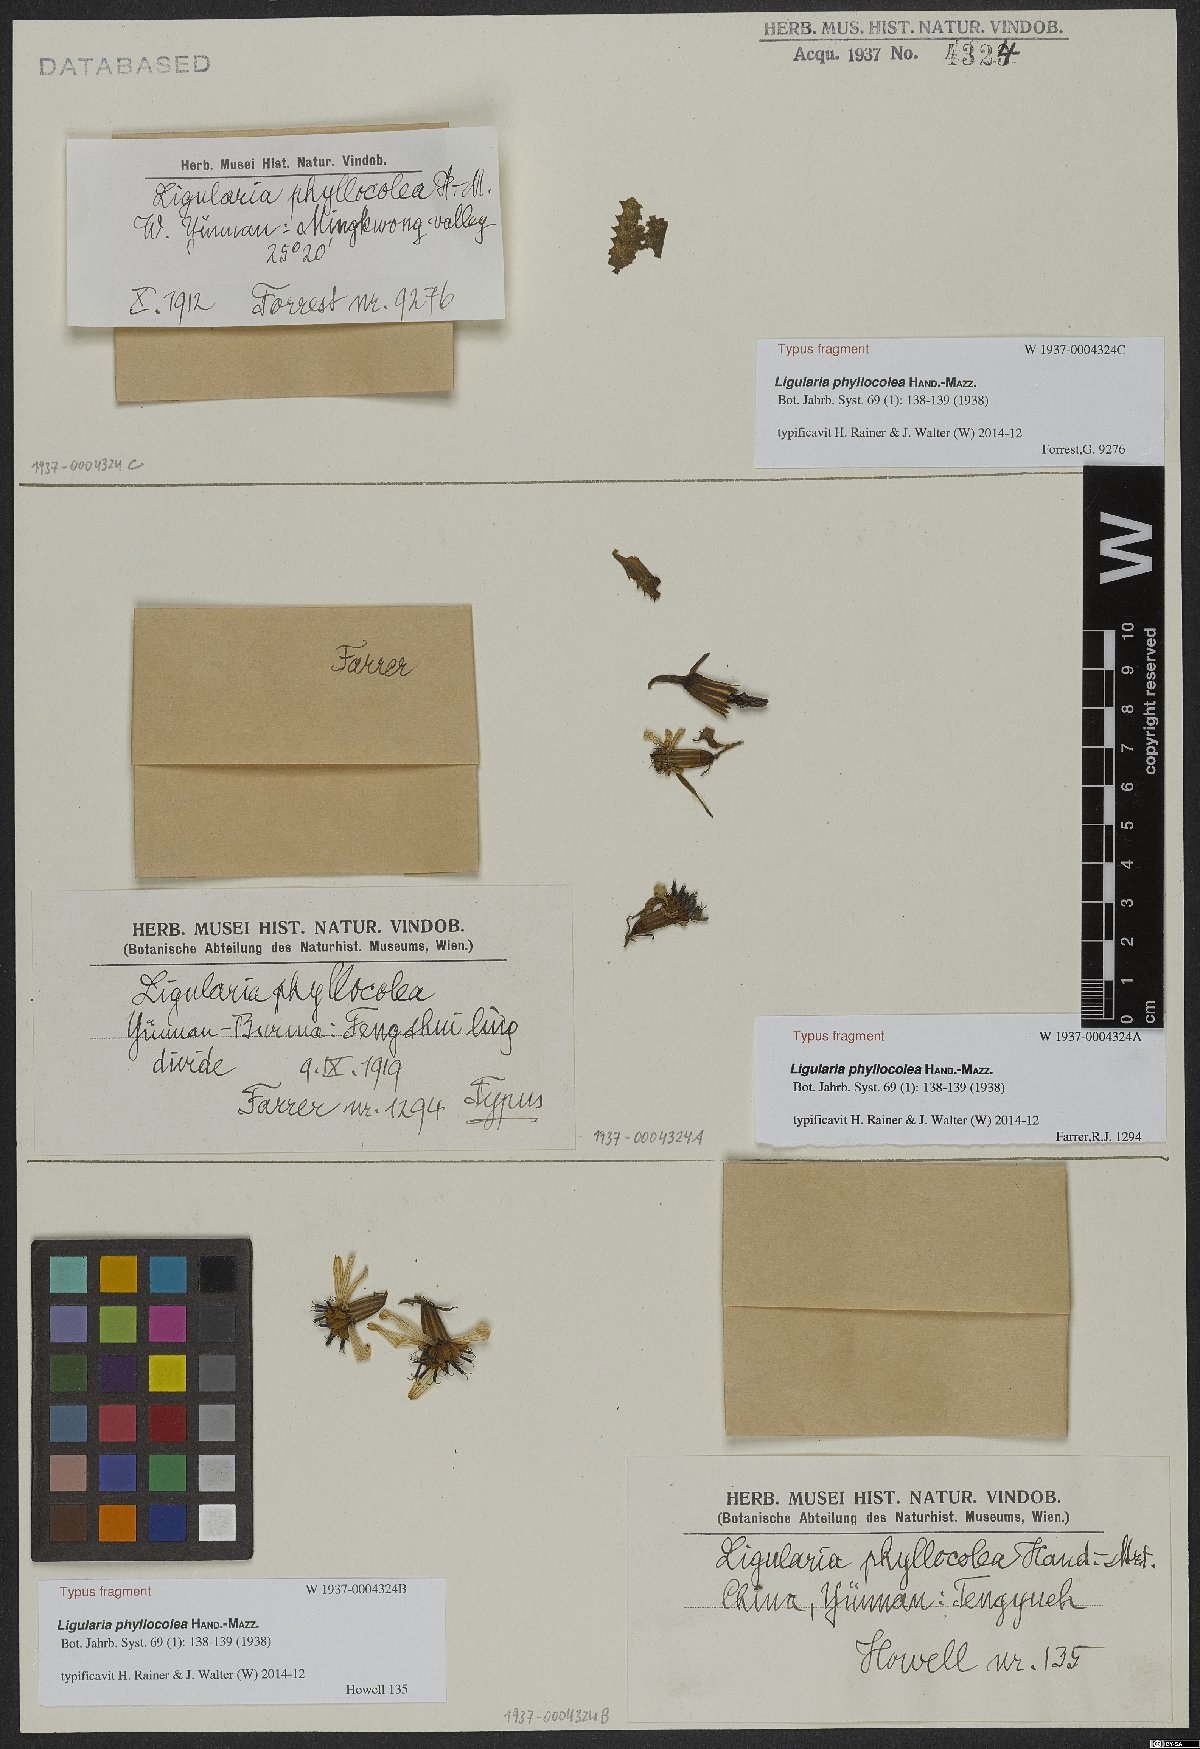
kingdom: Plantae
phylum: Tracheophyta
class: Magnoliopsida
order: Asterales
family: Asteraceae
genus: Ligularia
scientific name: Ligularia phyllocolea
